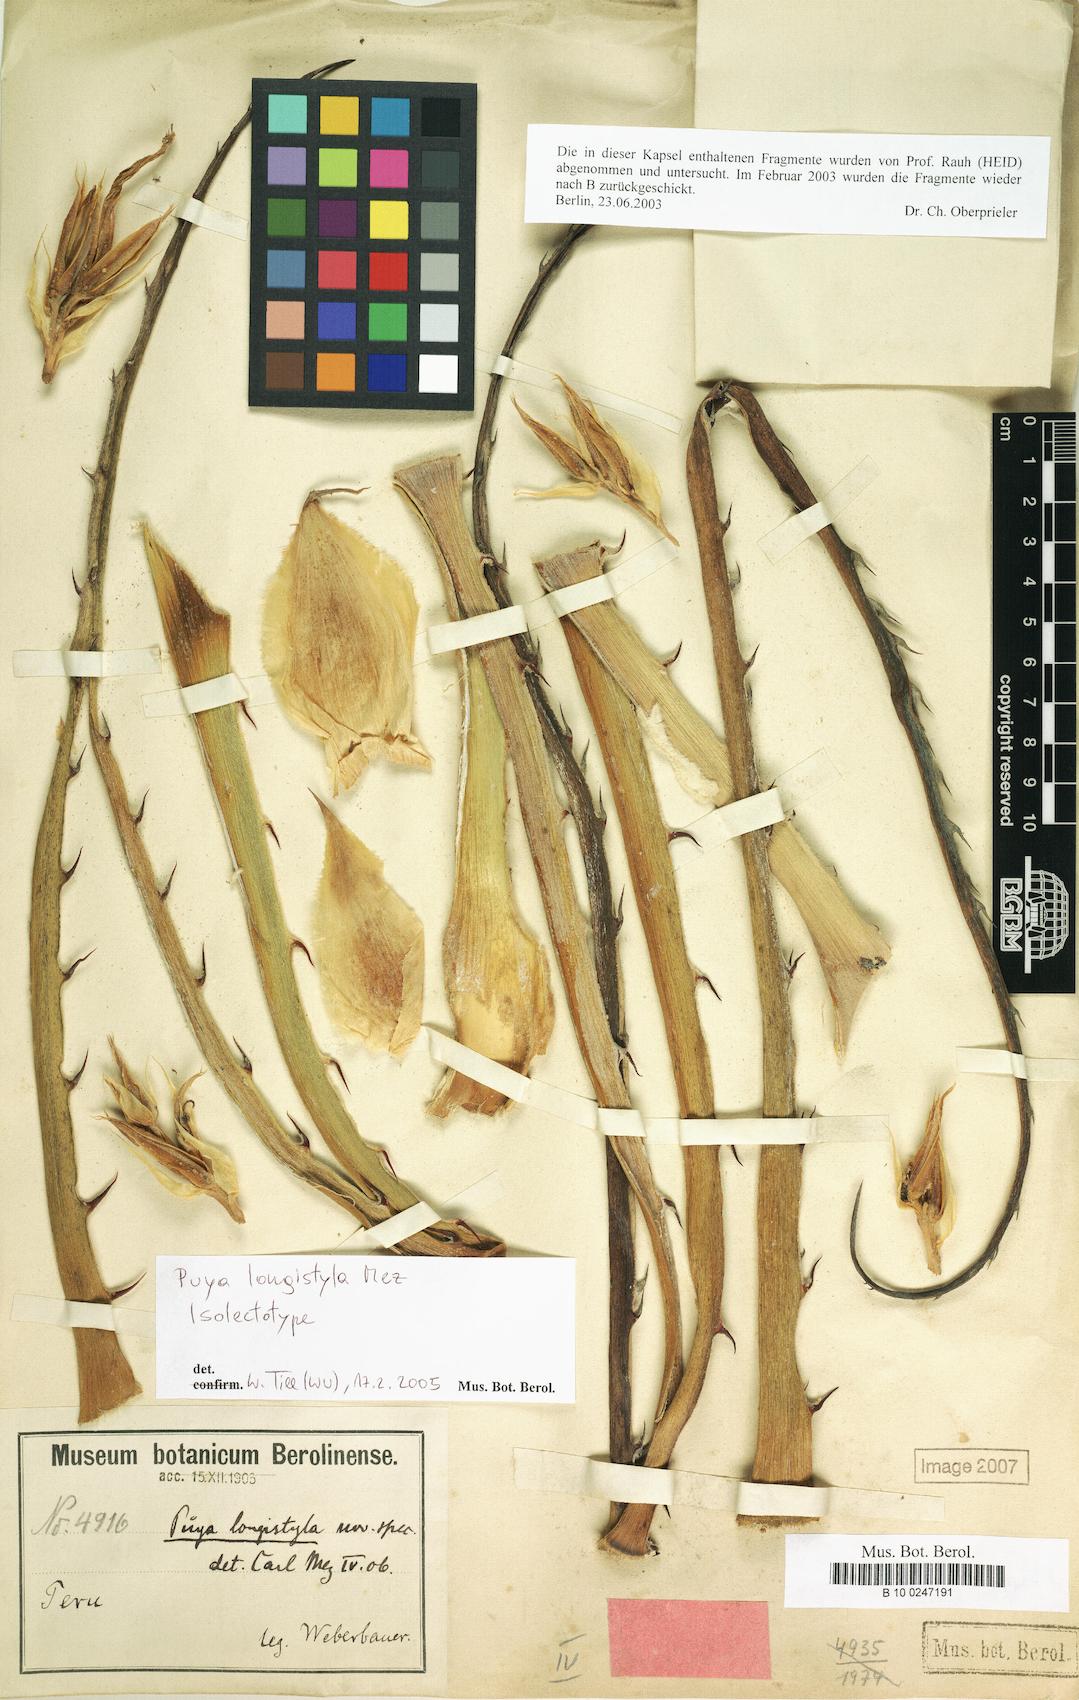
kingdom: Plantae
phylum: Tracheophyta
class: Liliopsida
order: Poales
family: Bromeliaceae
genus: Puya
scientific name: Puya longistyla
